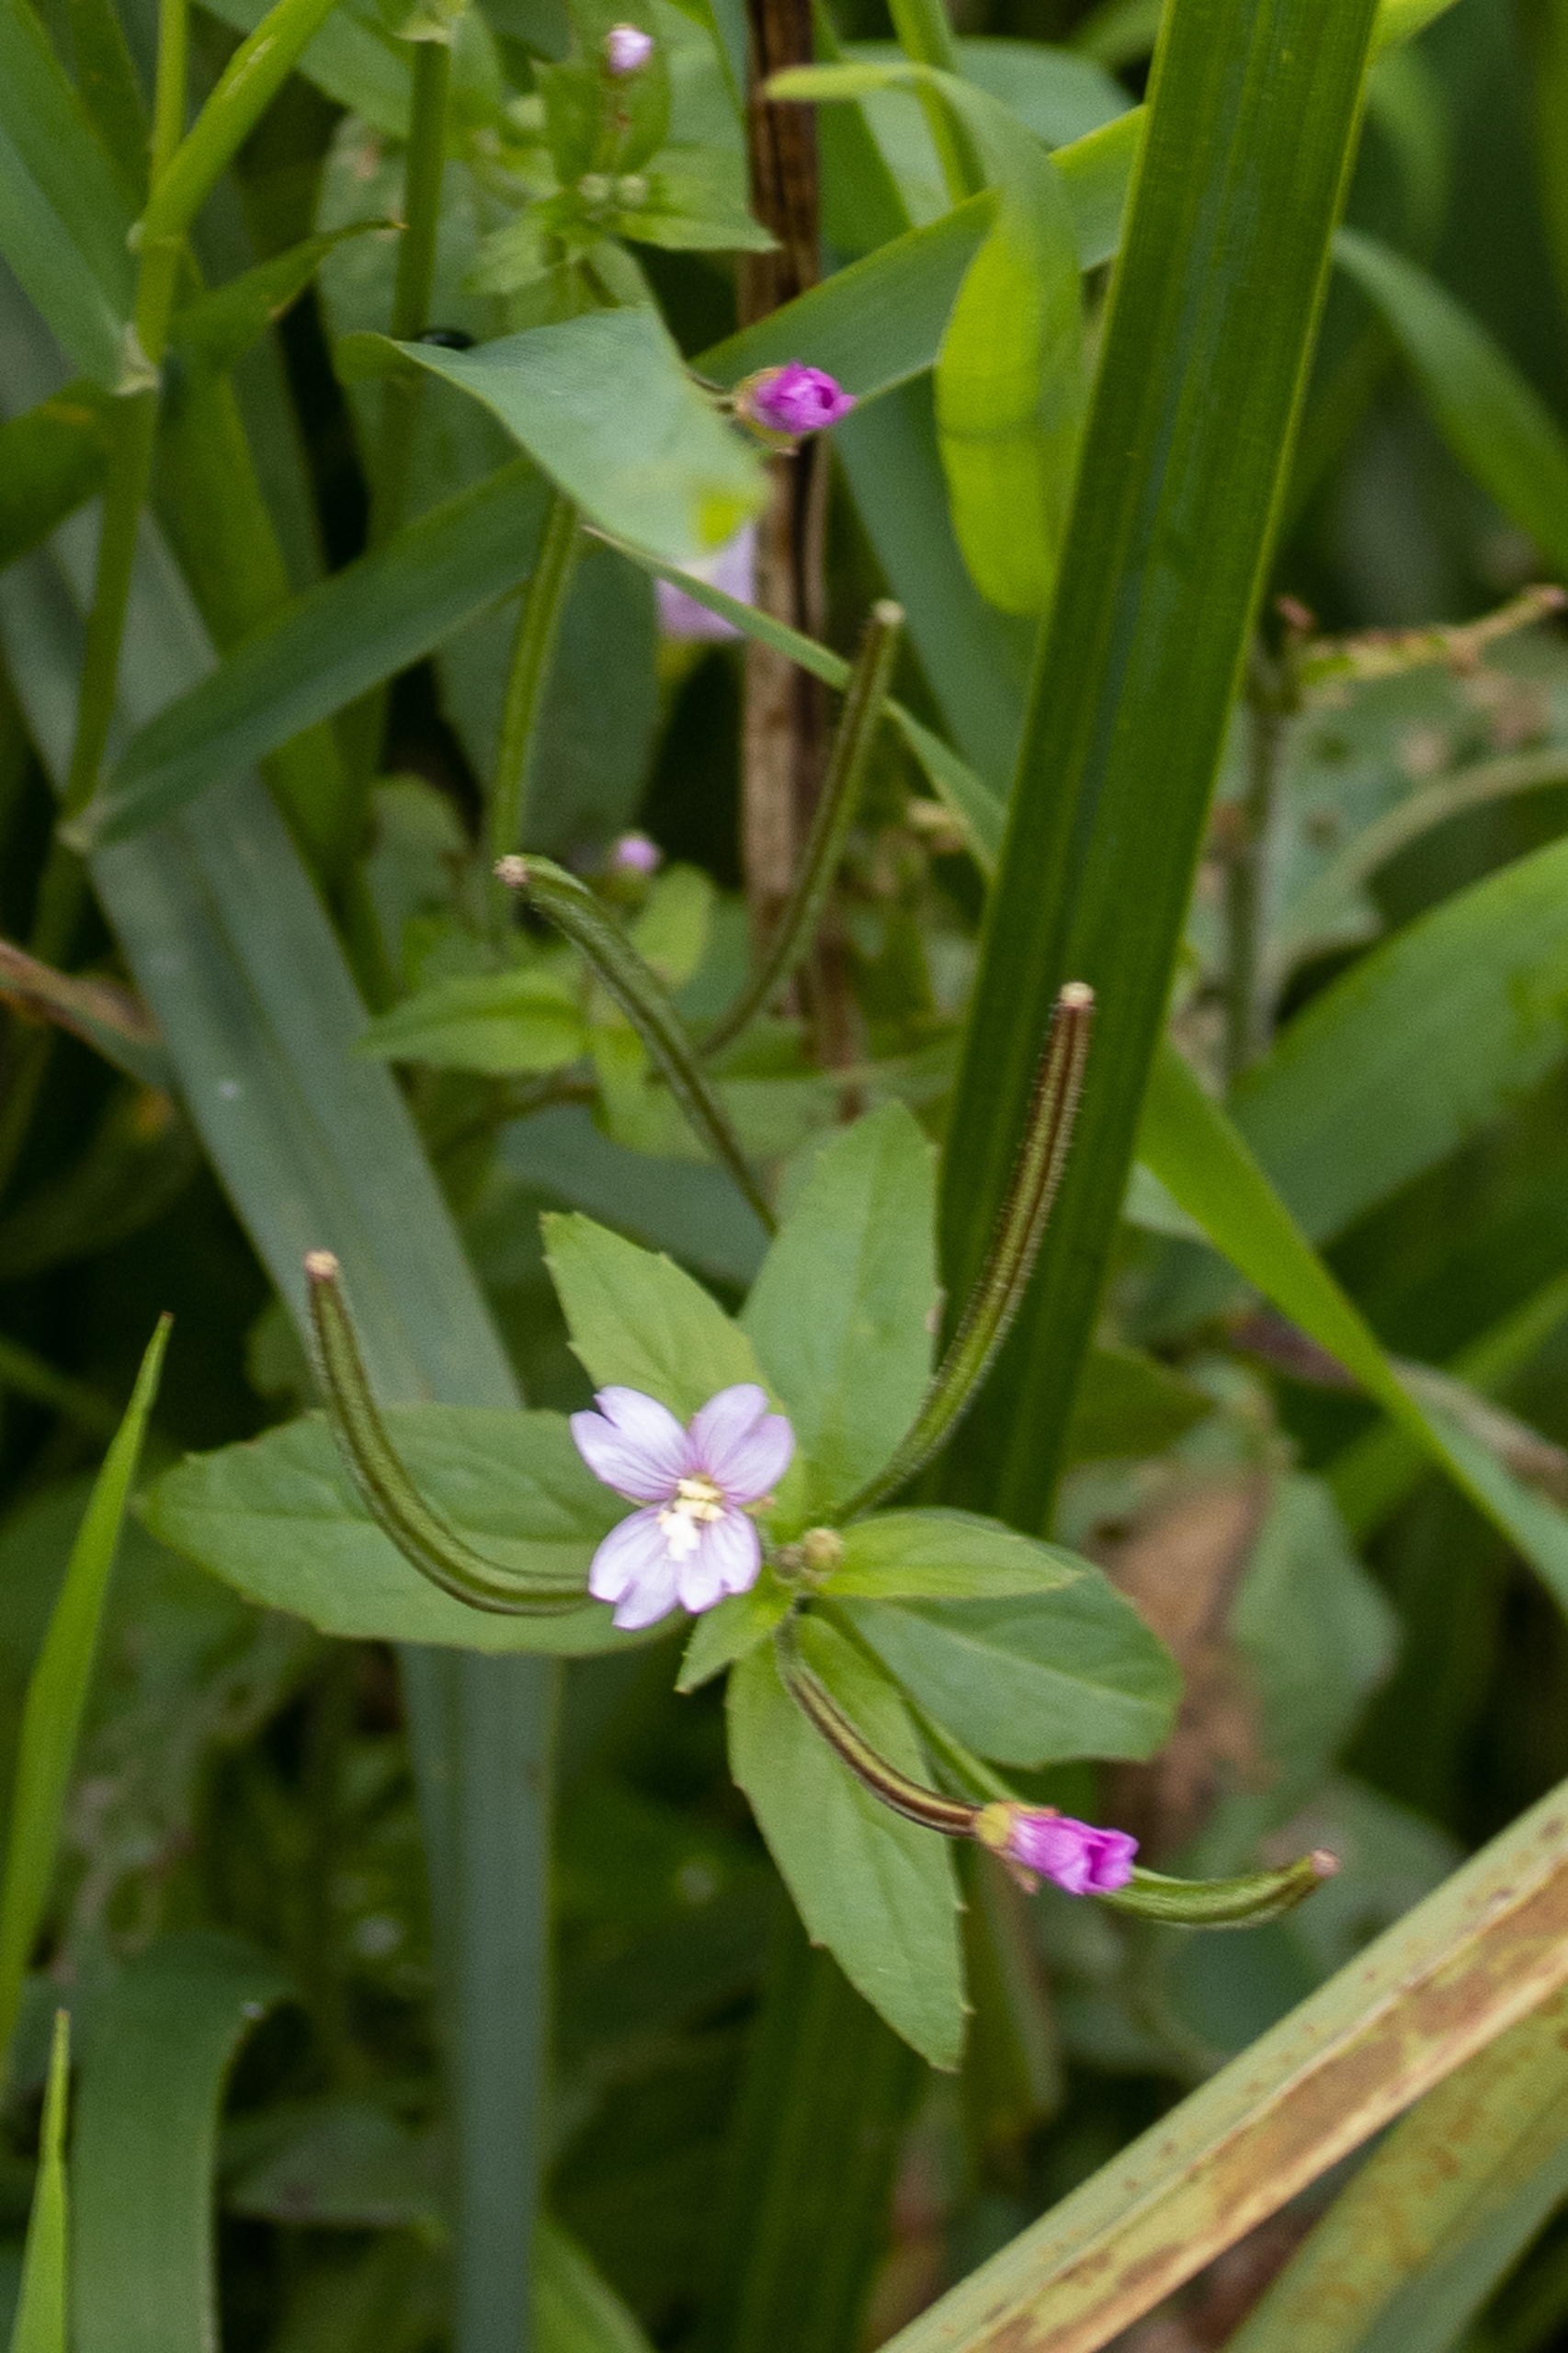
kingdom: Plantae
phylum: Tracheophyta
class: Magnoliopsida
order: Myrtales
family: Onagraceae
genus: Epilobium
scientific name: Epilobium parviflorum
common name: Dunet dueurt
